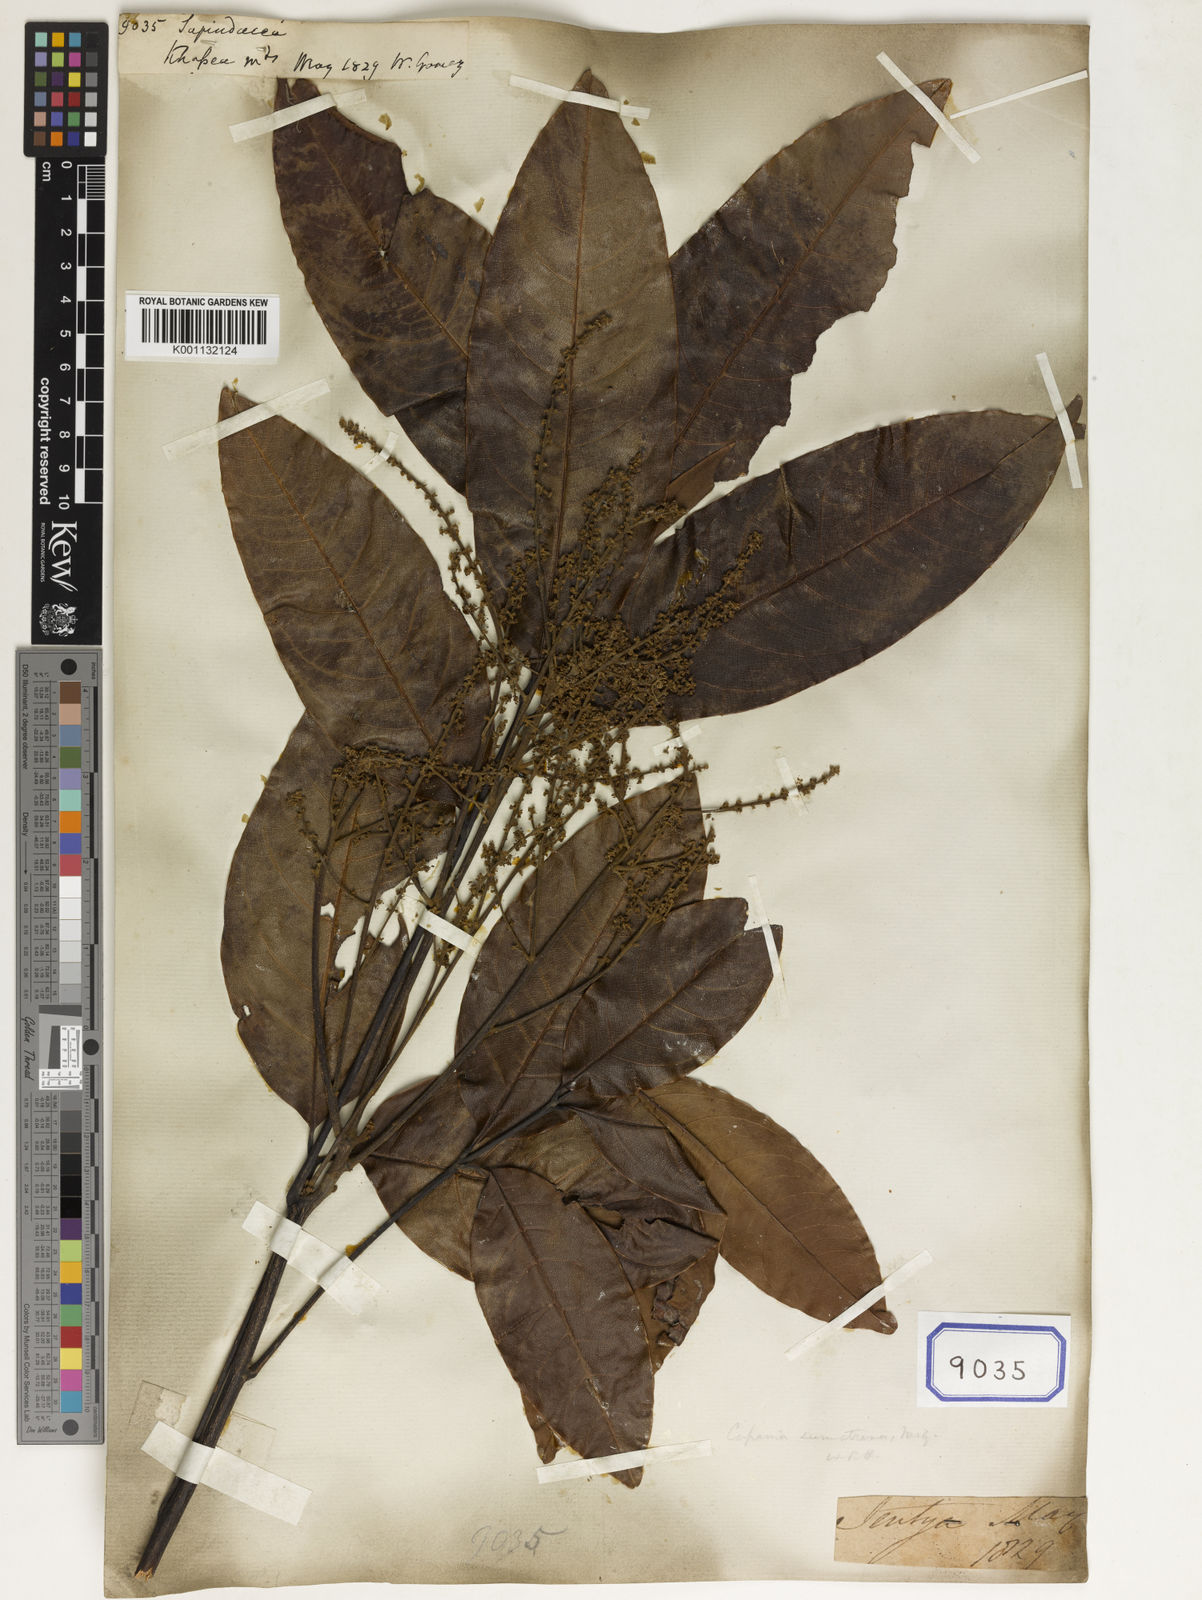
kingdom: Plantae
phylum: Tracheophyta
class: Magnoliopsida
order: Sapindales
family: Sapindaceae
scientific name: Sapindaceae
